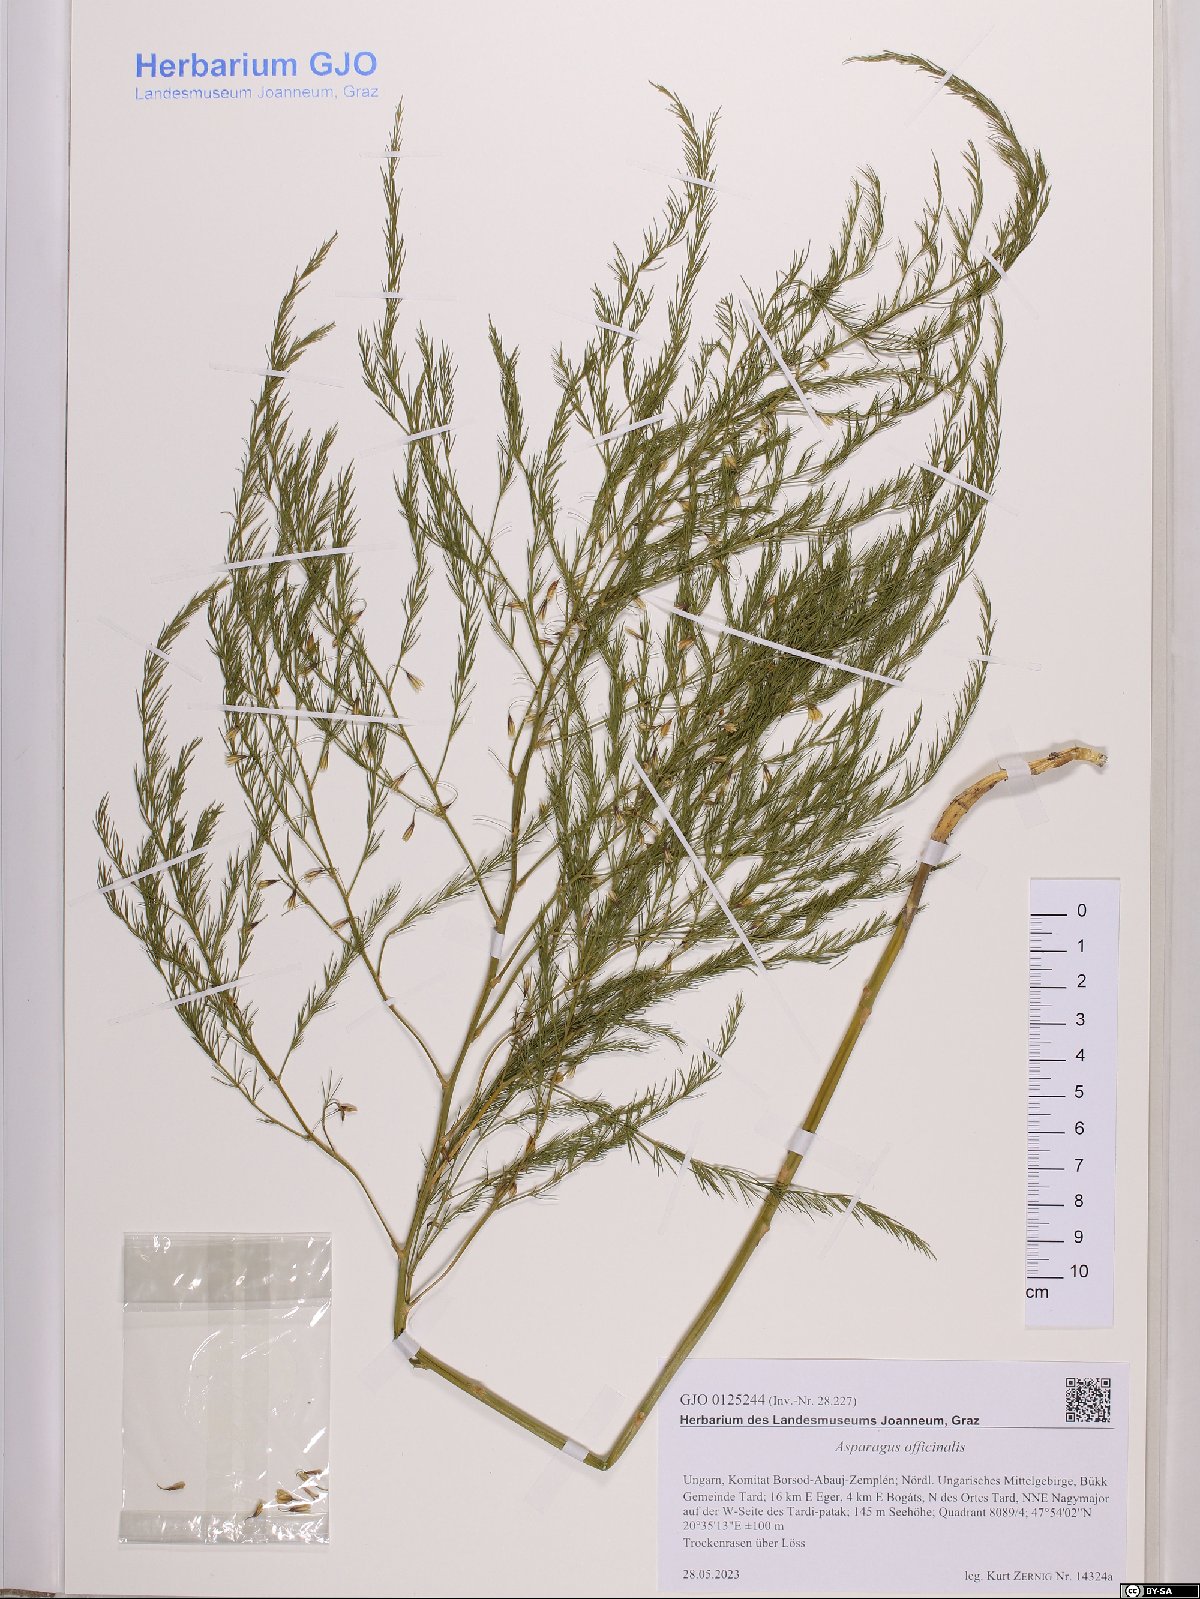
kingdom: Plantae
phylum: Tracheophyta
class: Liliopsida
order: Asparagales
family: Asparagaceae
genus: Asparagus
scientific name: Asparagus officinalis
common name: Garden asparagus
